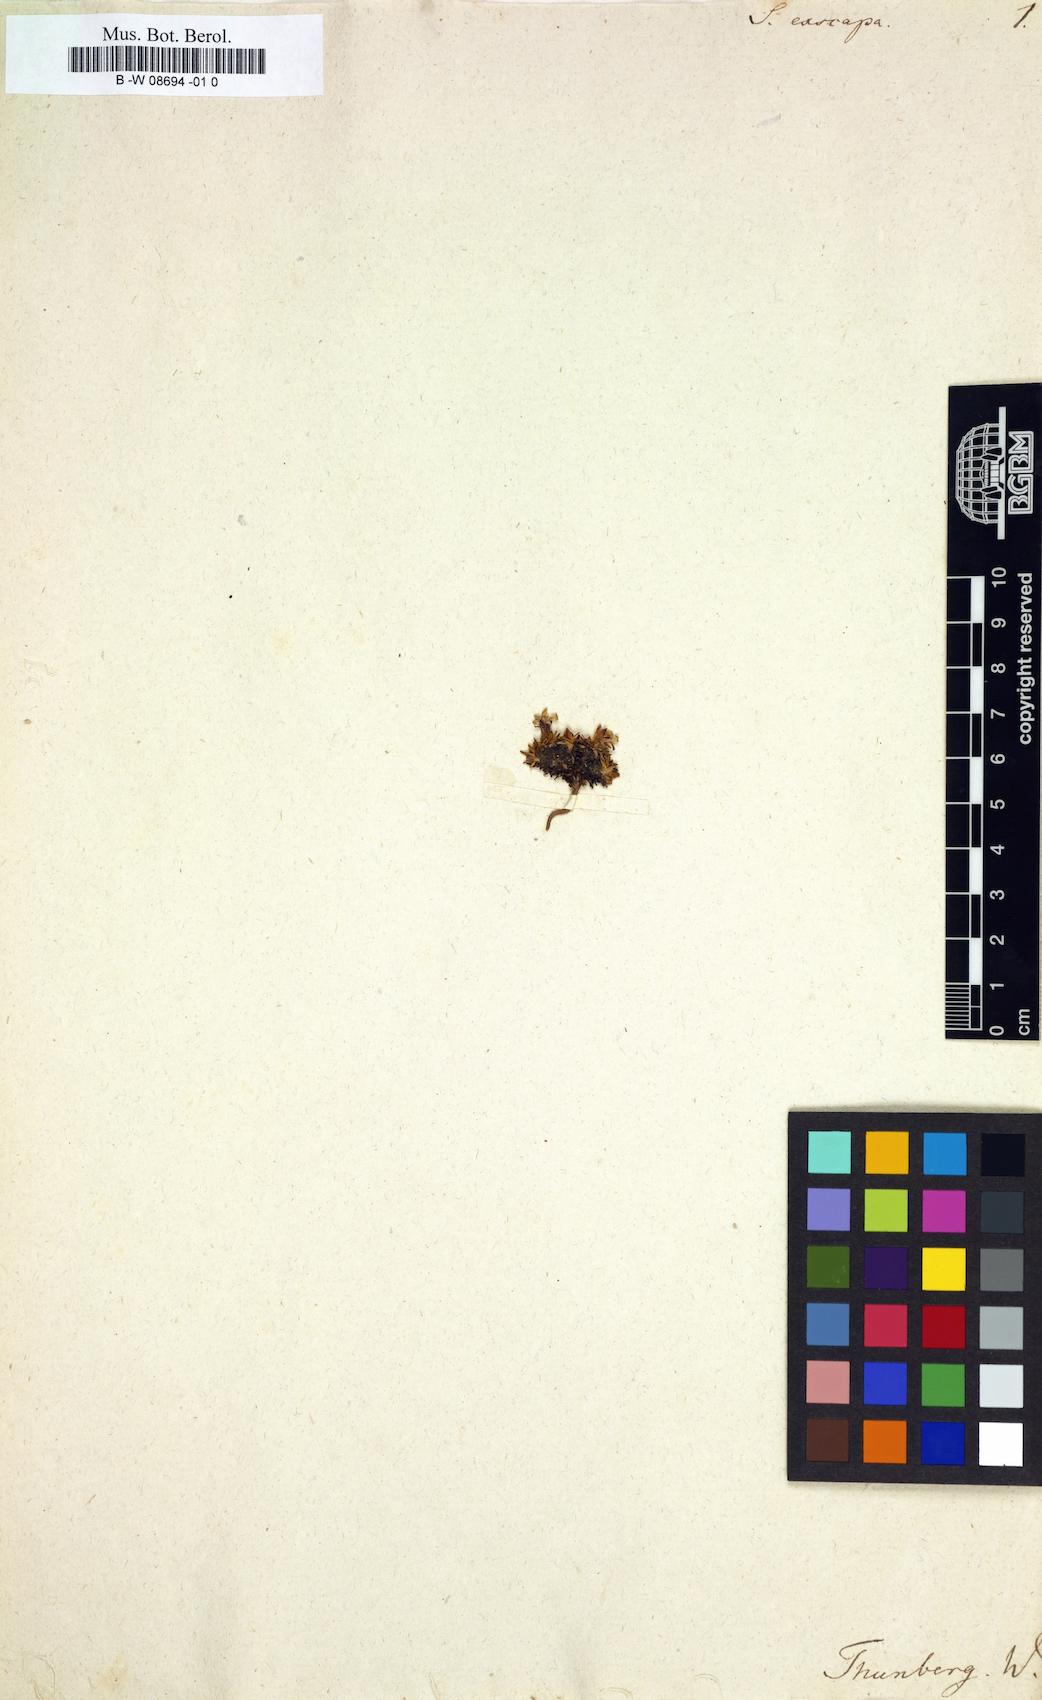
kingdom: Plantae
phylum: Tracheophyta
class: Magnoliopsida
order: Caryophyllales
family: Caryophyllaceae
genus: Silene
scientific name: Silene
